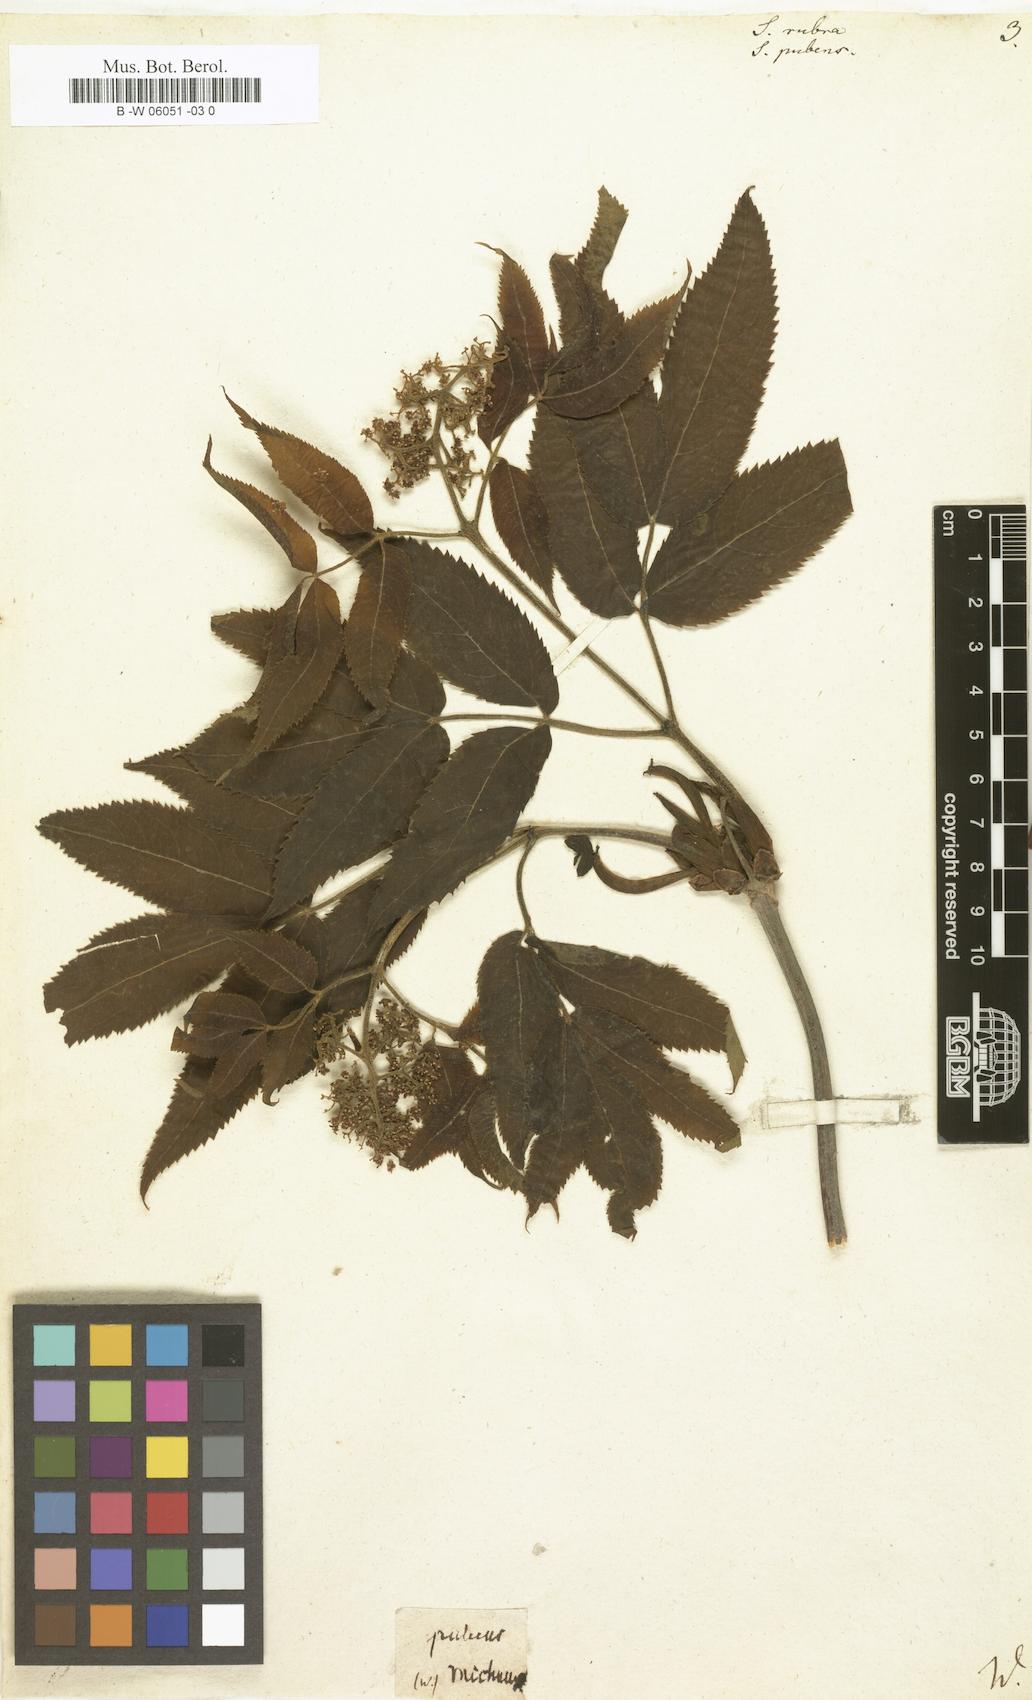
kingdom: Plantae
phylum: Tracheophyta
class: Magnoliopsida
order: Dipsacales
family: Viburnaceae
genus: Sambucus
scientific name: Sambucus javanica
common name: Chinese elder
